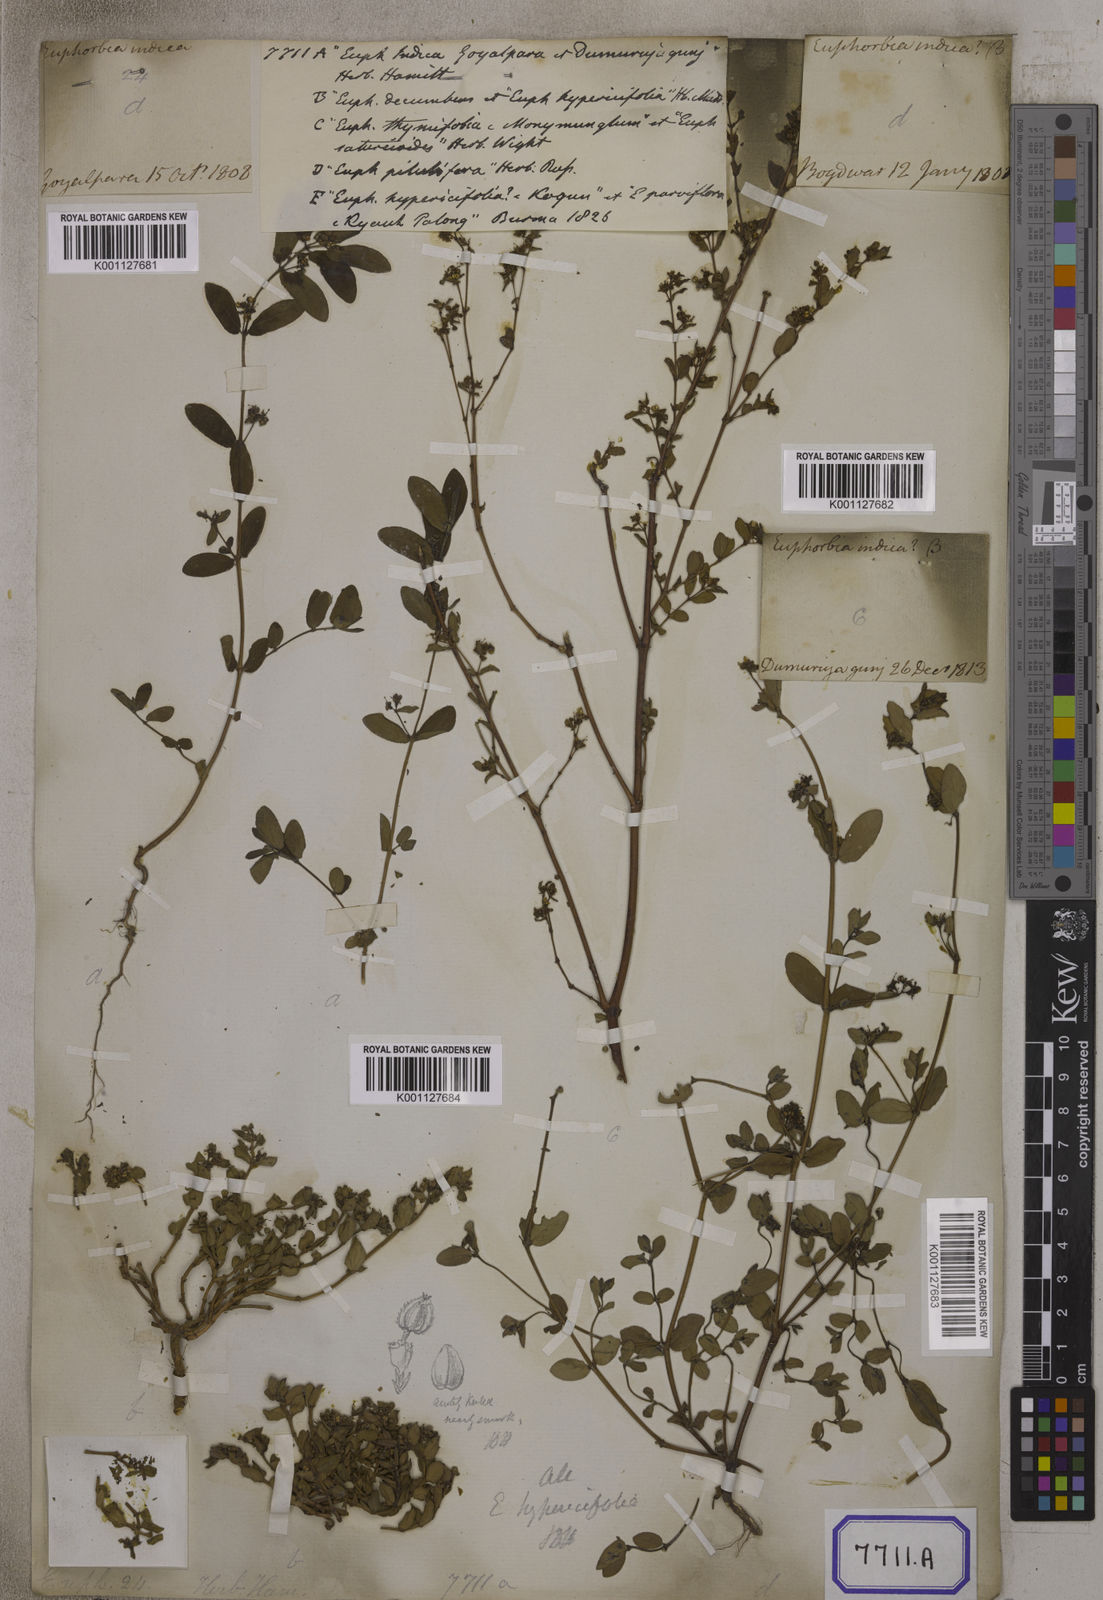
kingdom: Plantae
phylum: Tracheophyta
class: Magnoliopsida
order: Malpighiales
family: Euphorbiaceae
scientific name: Euphorbiaceae
